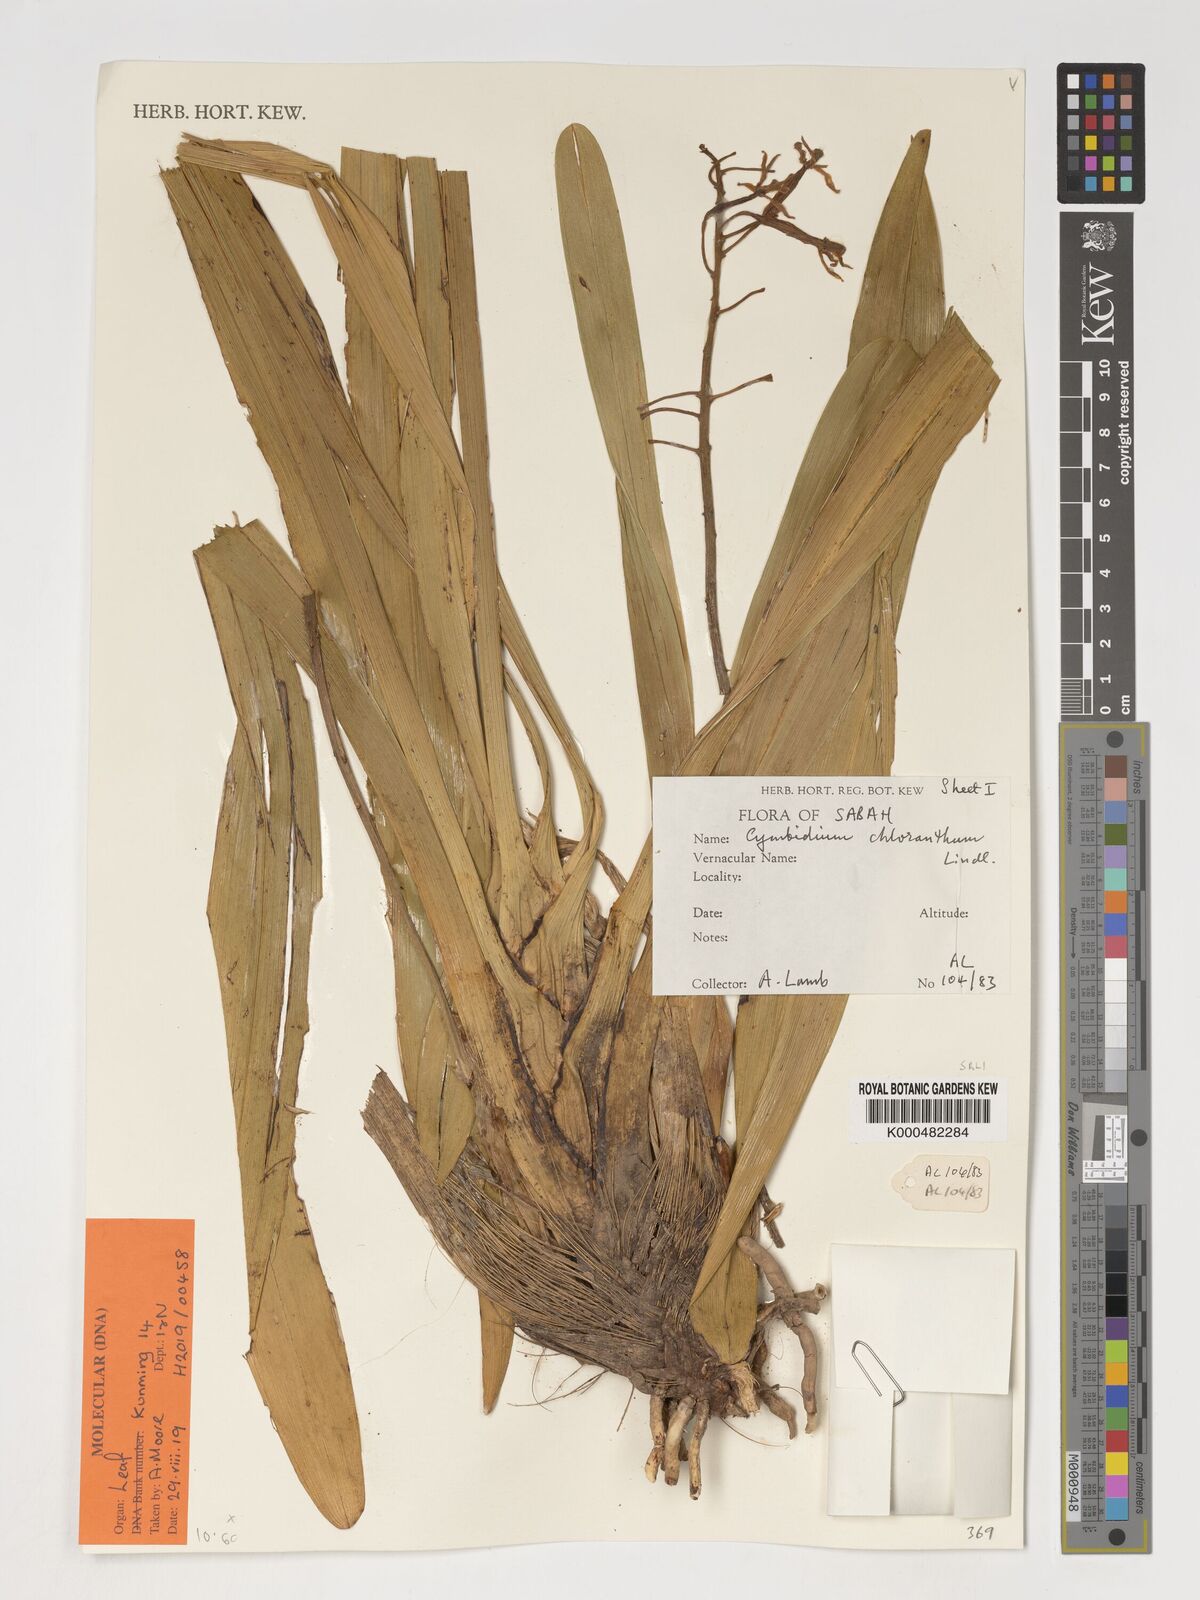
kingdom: Plantae
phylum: Tracheophyta
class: Liliopsida
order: Asparagales
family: Orchidaceae
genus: Cymbidium
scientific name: Cymbidium
